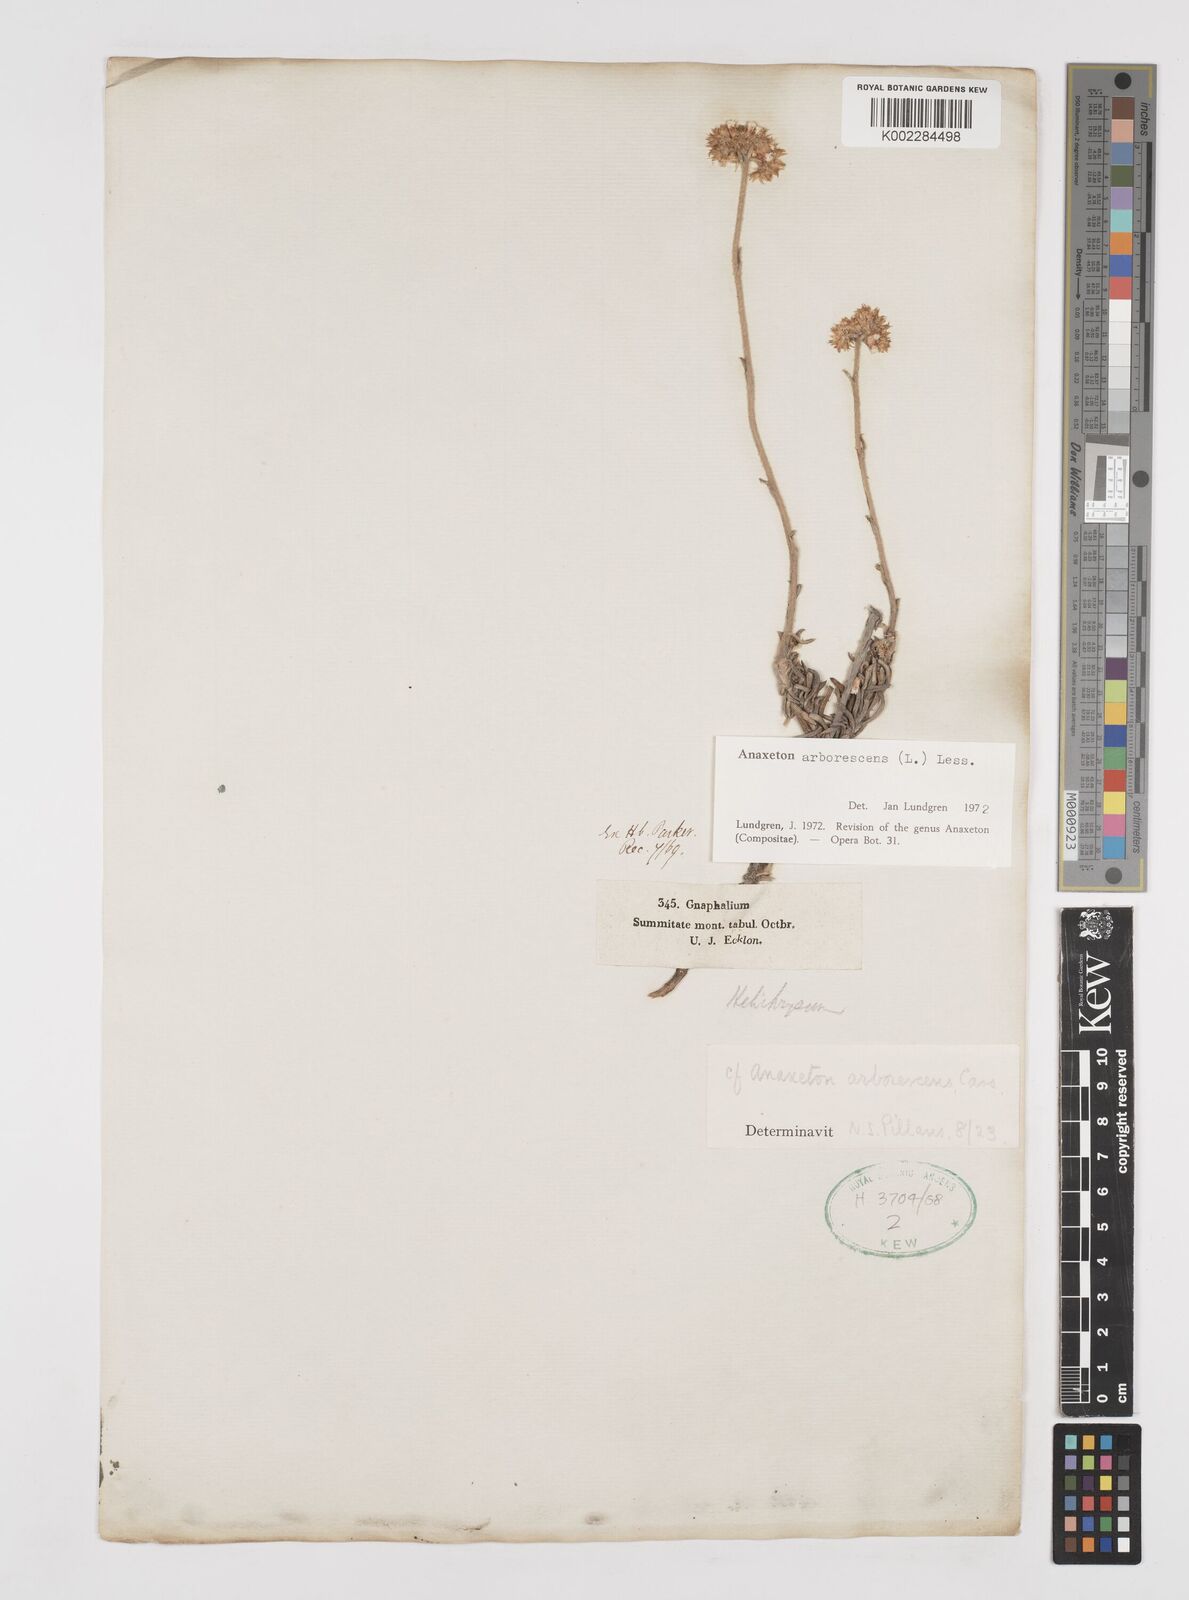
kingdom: Plantae
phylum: Tracheophyta
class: Magnoliopsida
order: Asterales
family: Asteraceae
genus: Anaxeton
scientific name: Anaxeton arborescens
